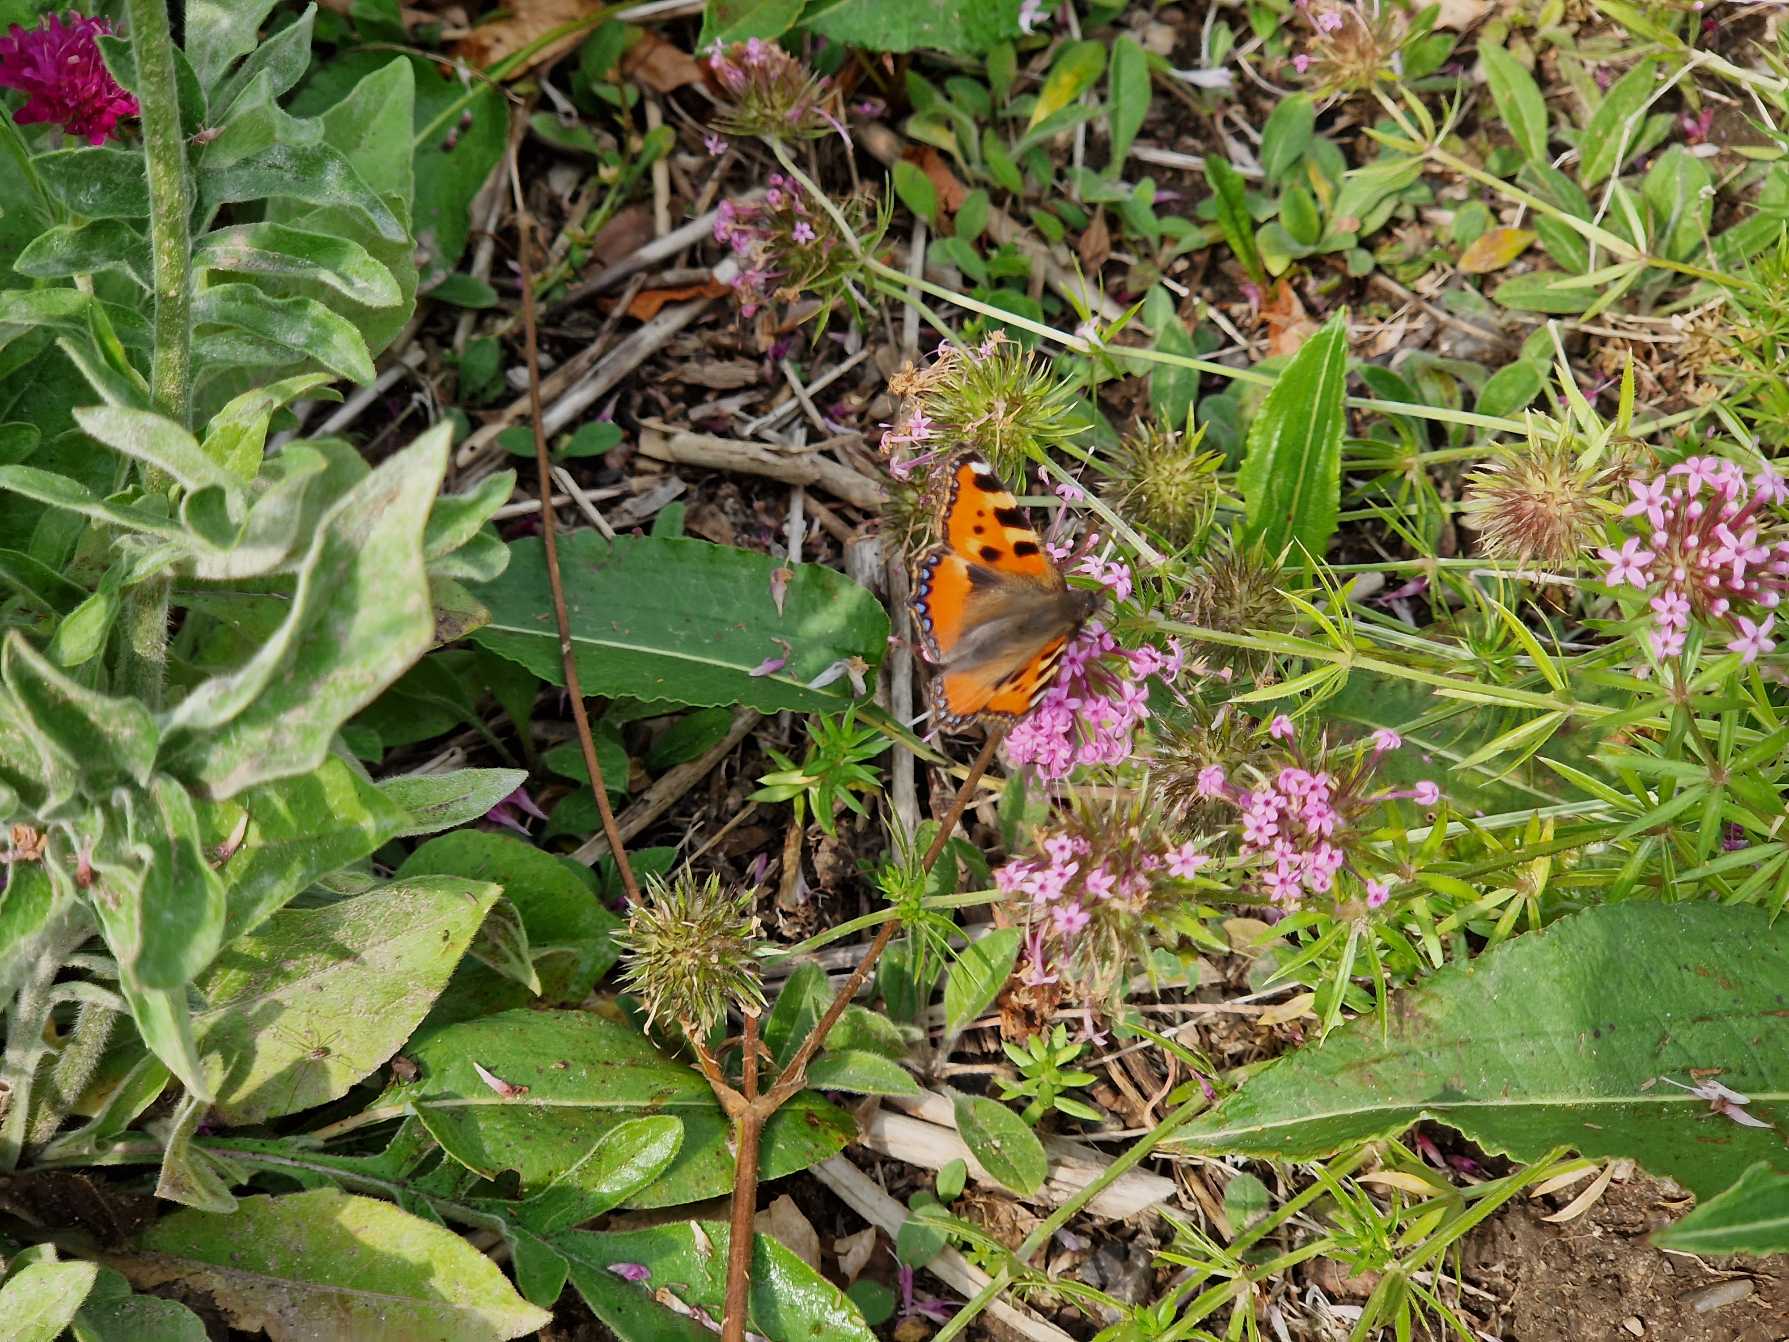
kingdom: Animalia
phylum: Arthropoda
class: Insecta
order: Lepidoptera
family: Nymphalidae
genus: Aglais
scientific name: Aglais urticae
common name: Nældens takvinge
